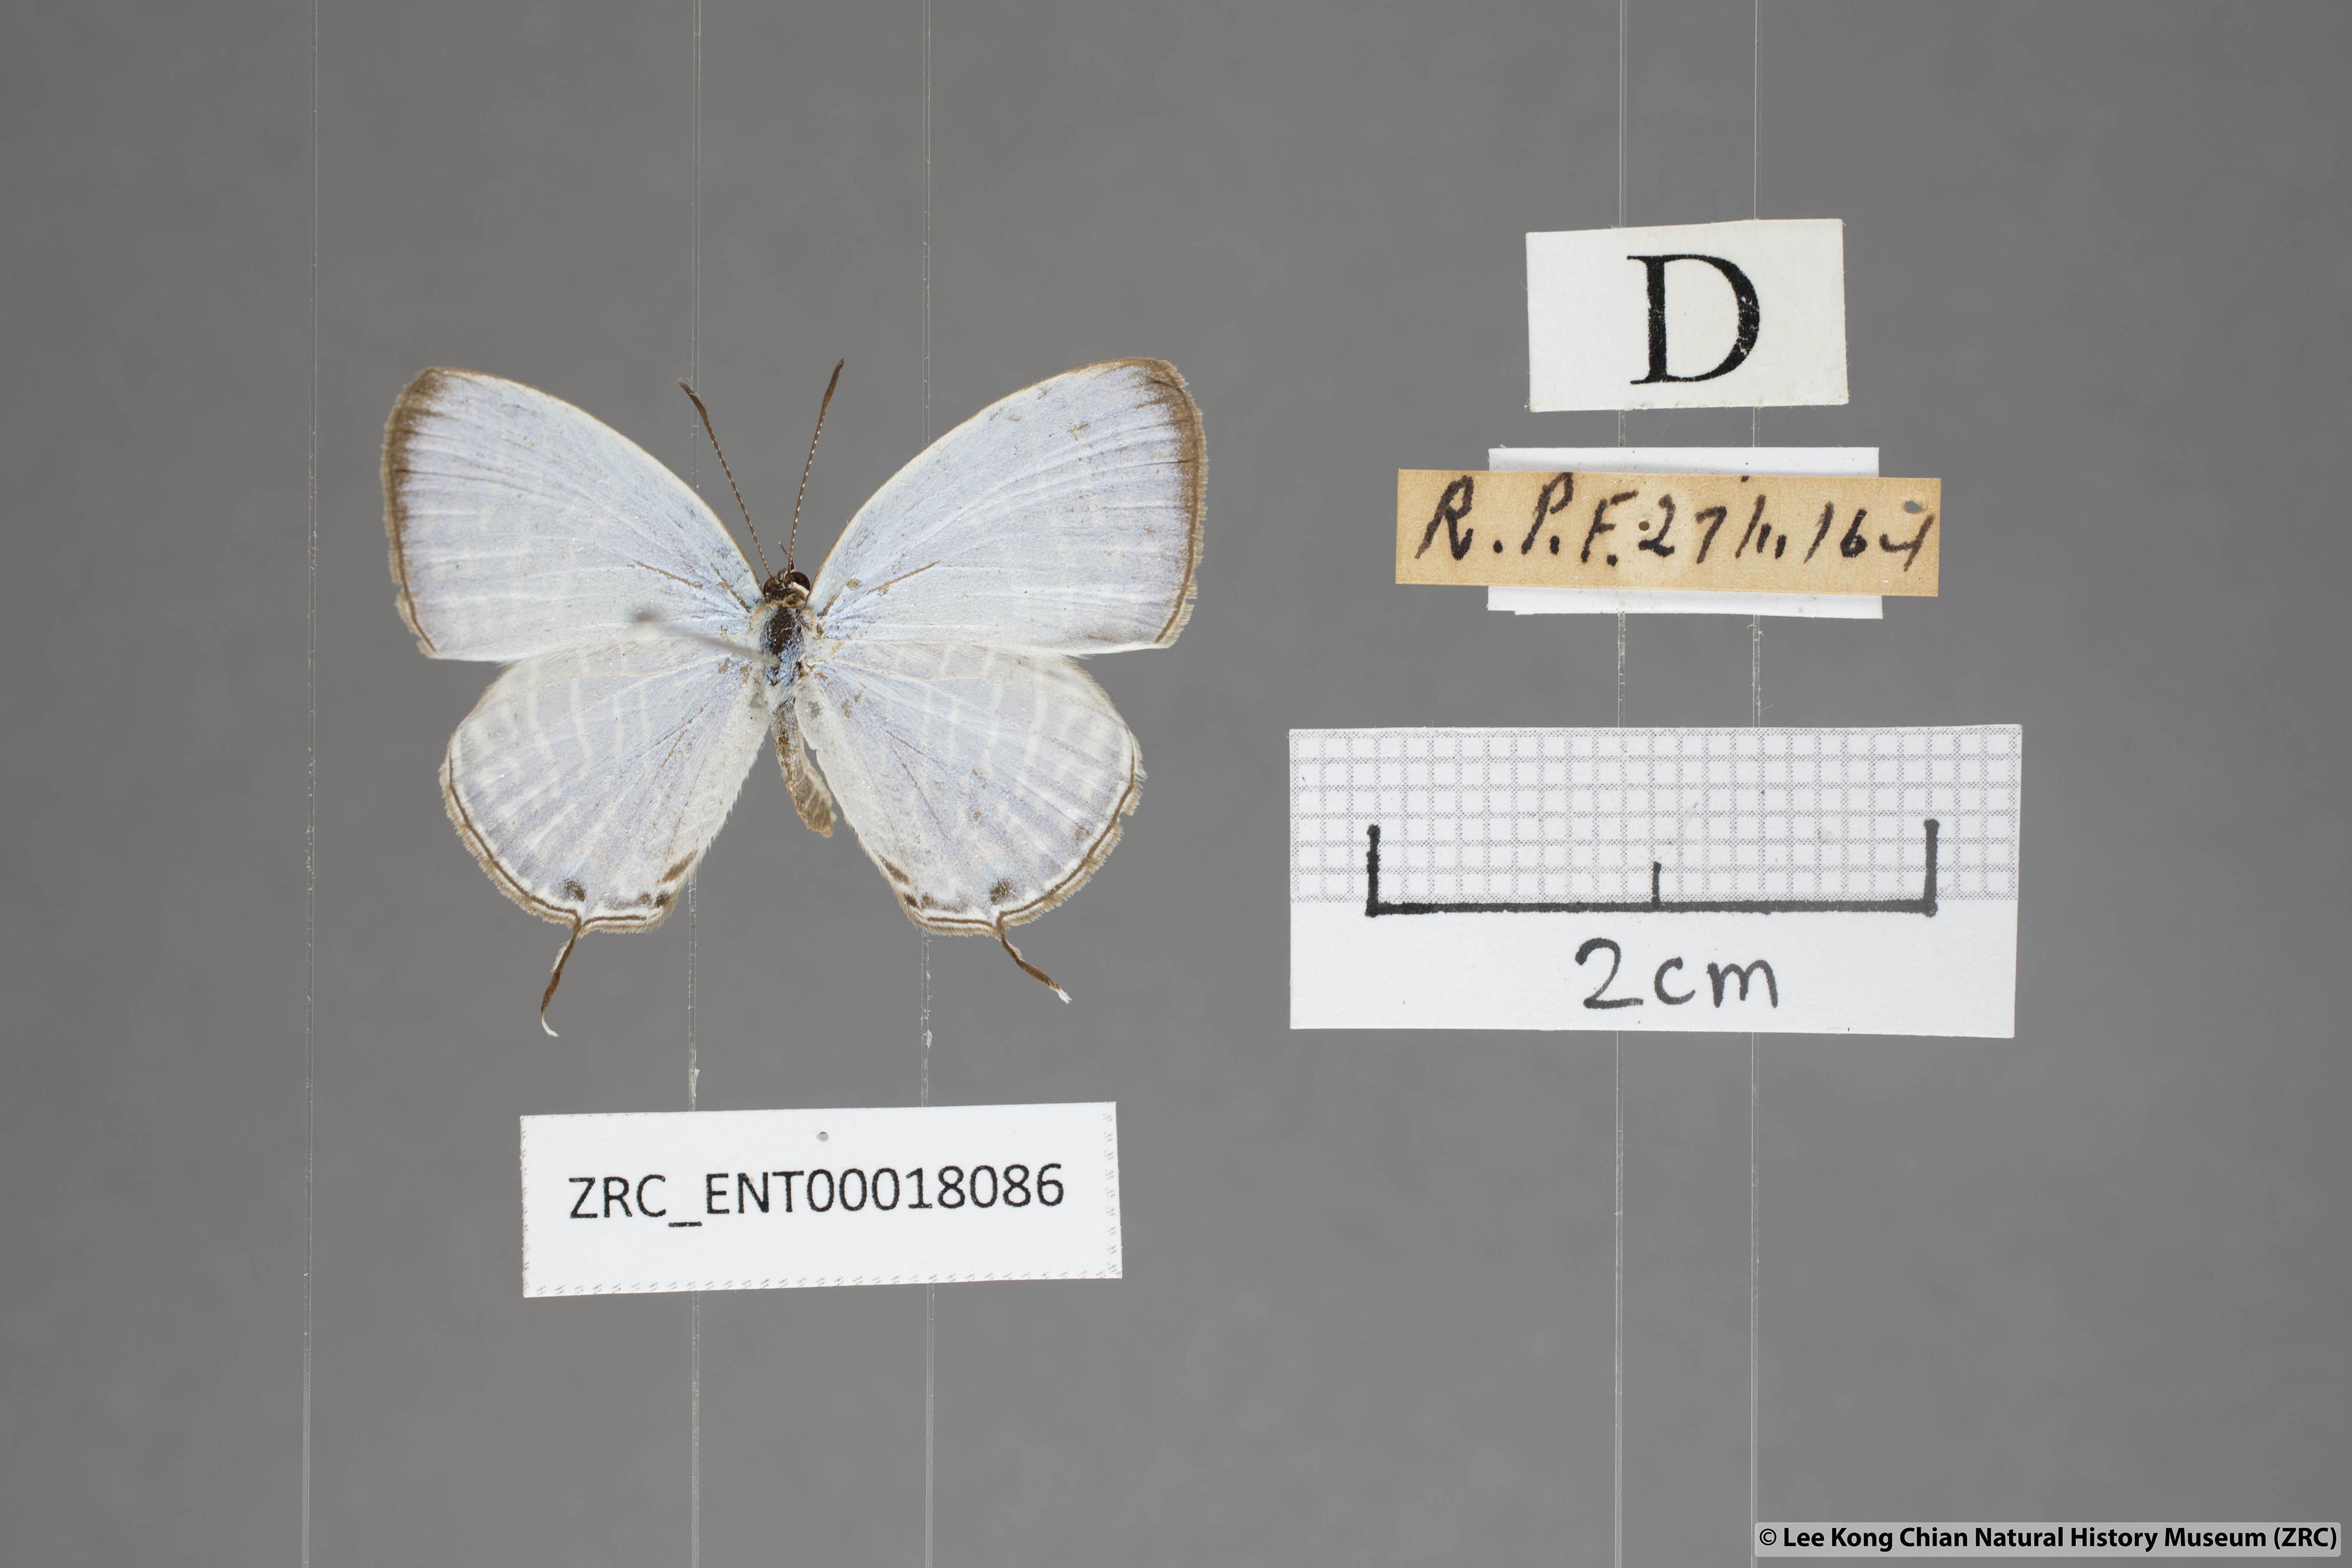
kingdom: Animalia
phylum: Arthropoda
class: Insecta
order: Lepidoptera
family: Lycaenidae
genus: Jamides
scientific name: Jamides celeno
